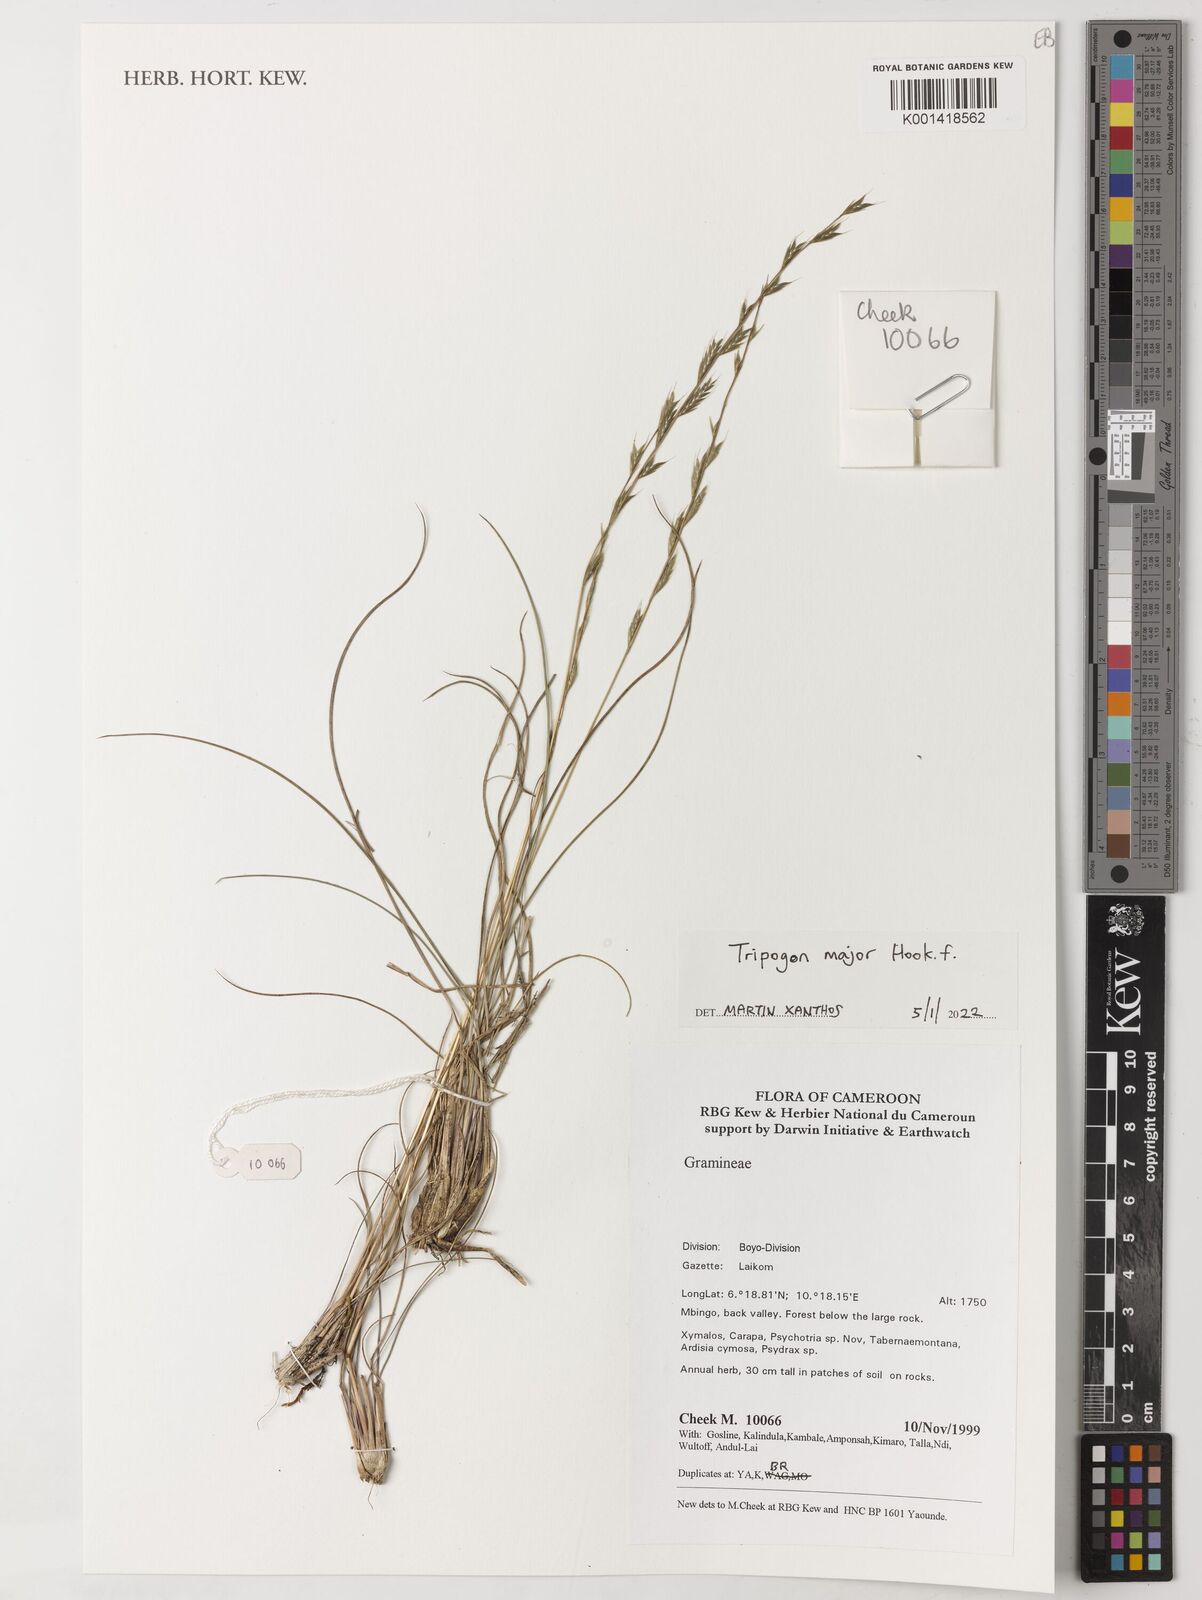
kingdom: Plantae
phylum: Tracheophyta
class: Liliopsida
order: Poales
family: Poaceae
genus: Tripogon
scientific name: Tripogon major
